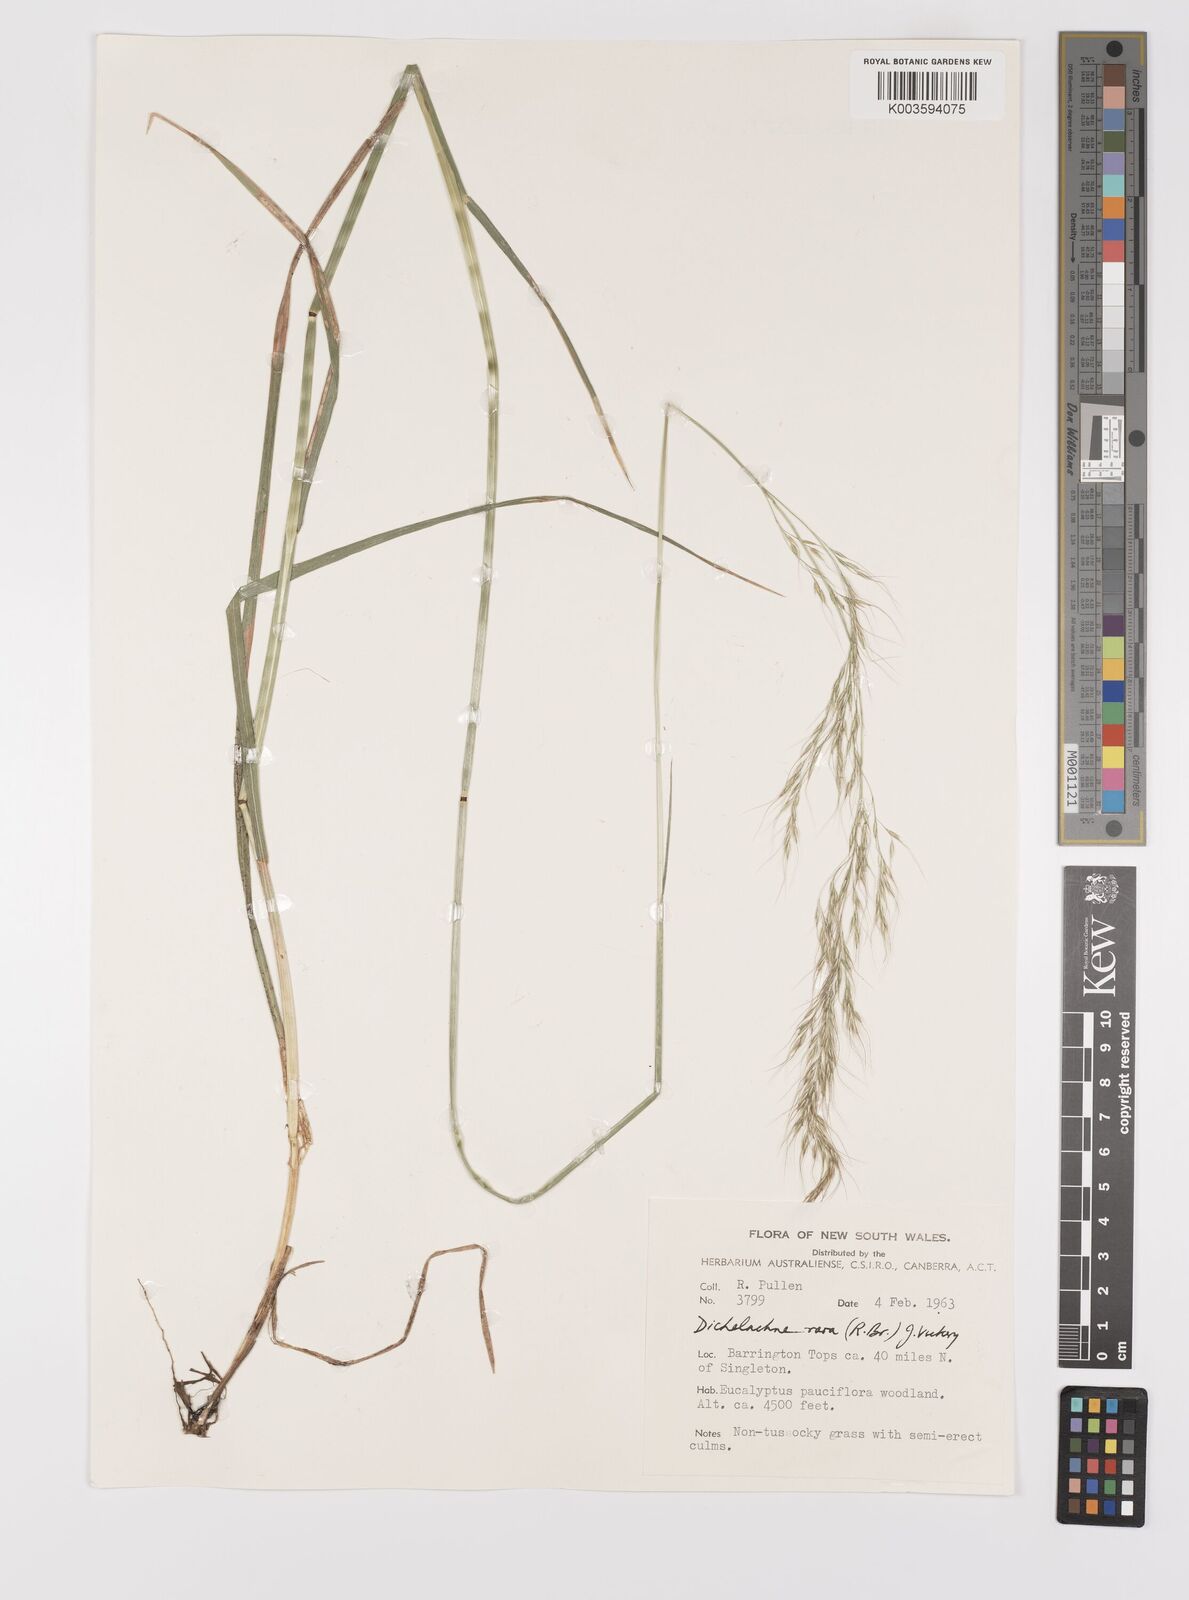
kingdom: Plantae
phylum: Tracheophyta
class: Liliopsida
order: Poales
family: Poaceae
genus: Dichelachne
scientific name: Dichelachne rara
